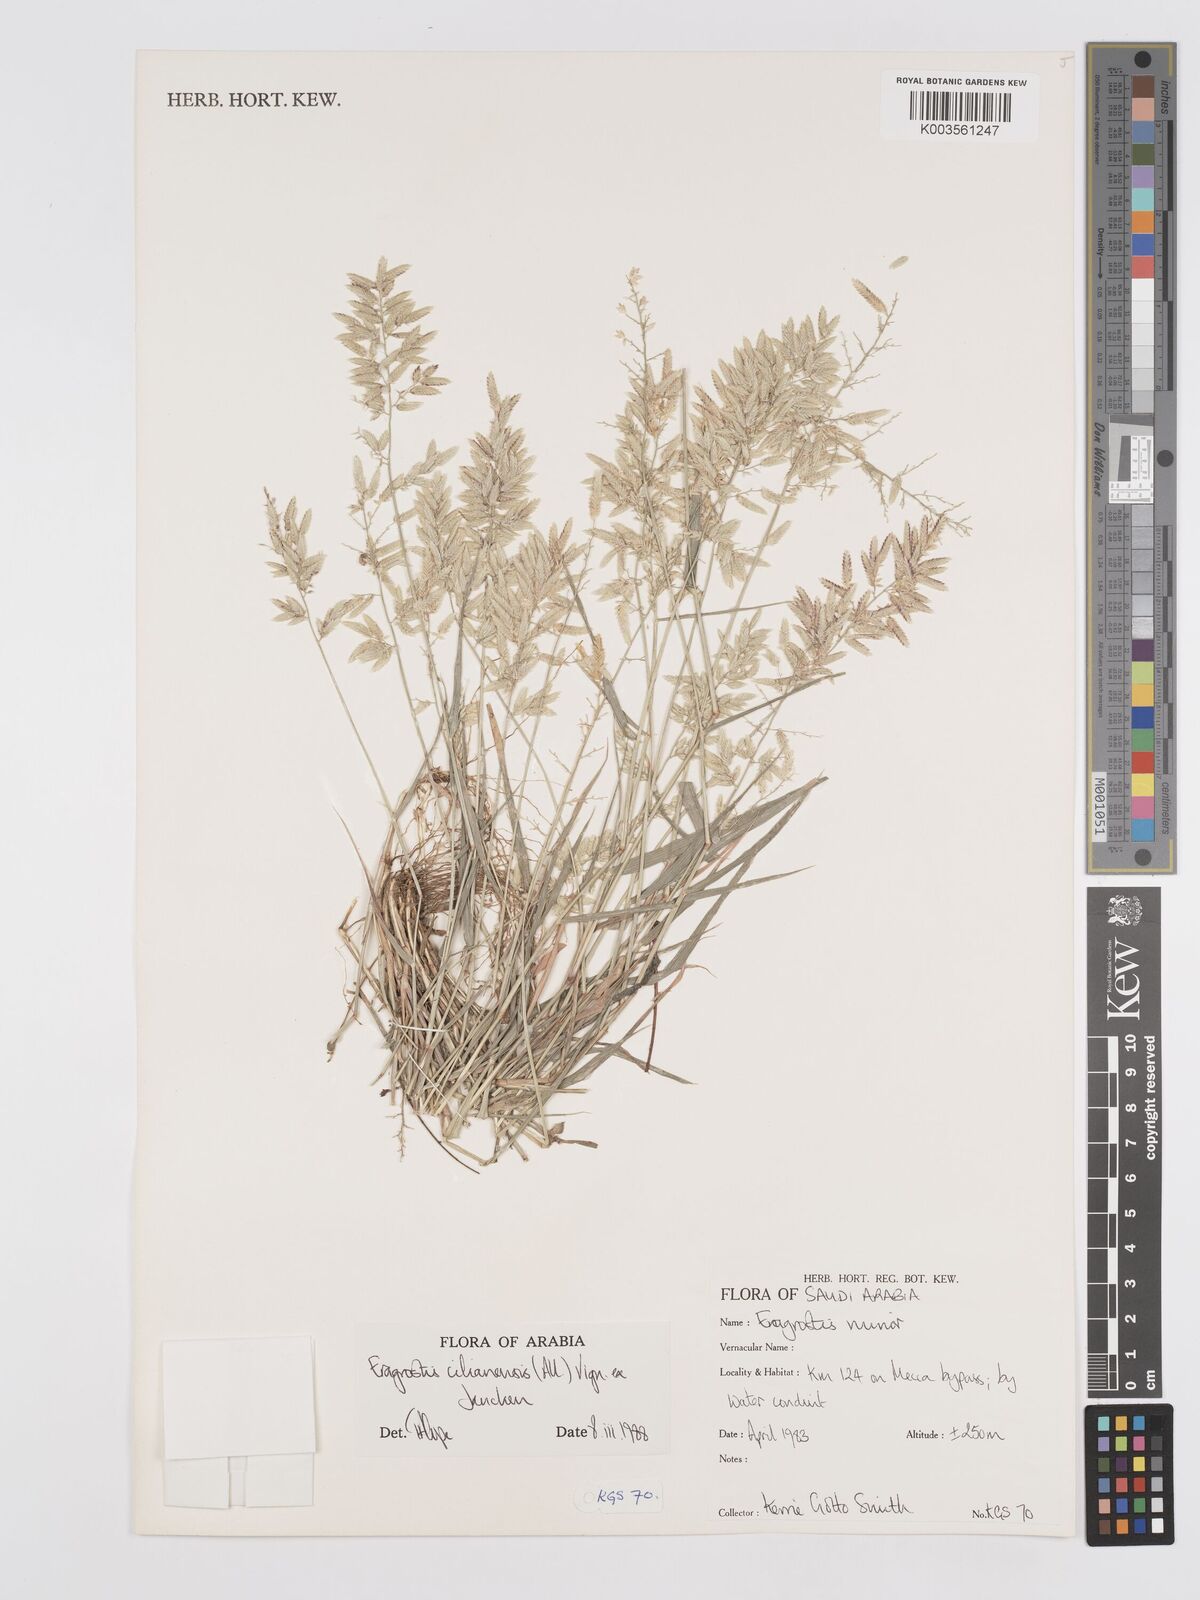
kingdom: Plantae
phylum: Tracheophyta
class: Liliopsida
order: Poales
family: Poaceae
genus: Eragrostis
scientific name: Eragrostis cilianensis
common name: Stinkgrass
